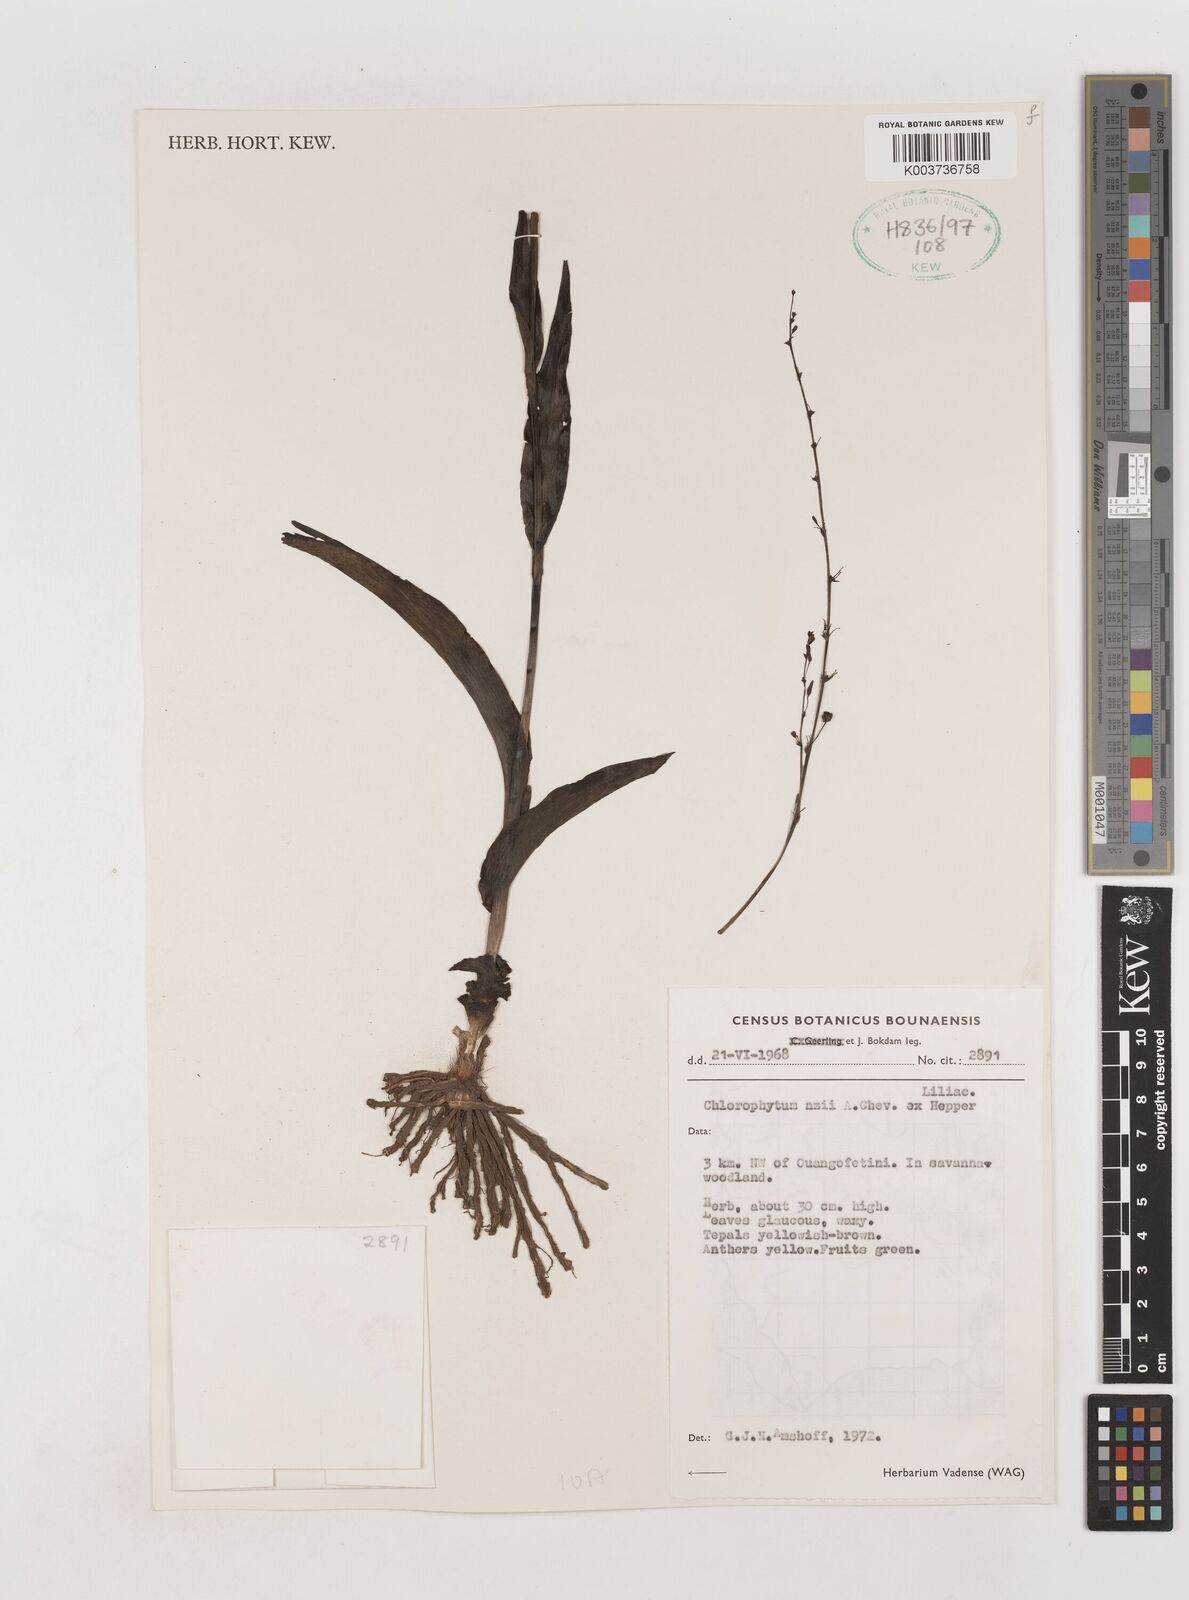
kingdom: Plantae
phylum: Tracheophyta
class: Liliopsida
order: Asparagales
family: Asparagaceae
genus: Chlorophytum
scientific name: Chlorophytum nzii
